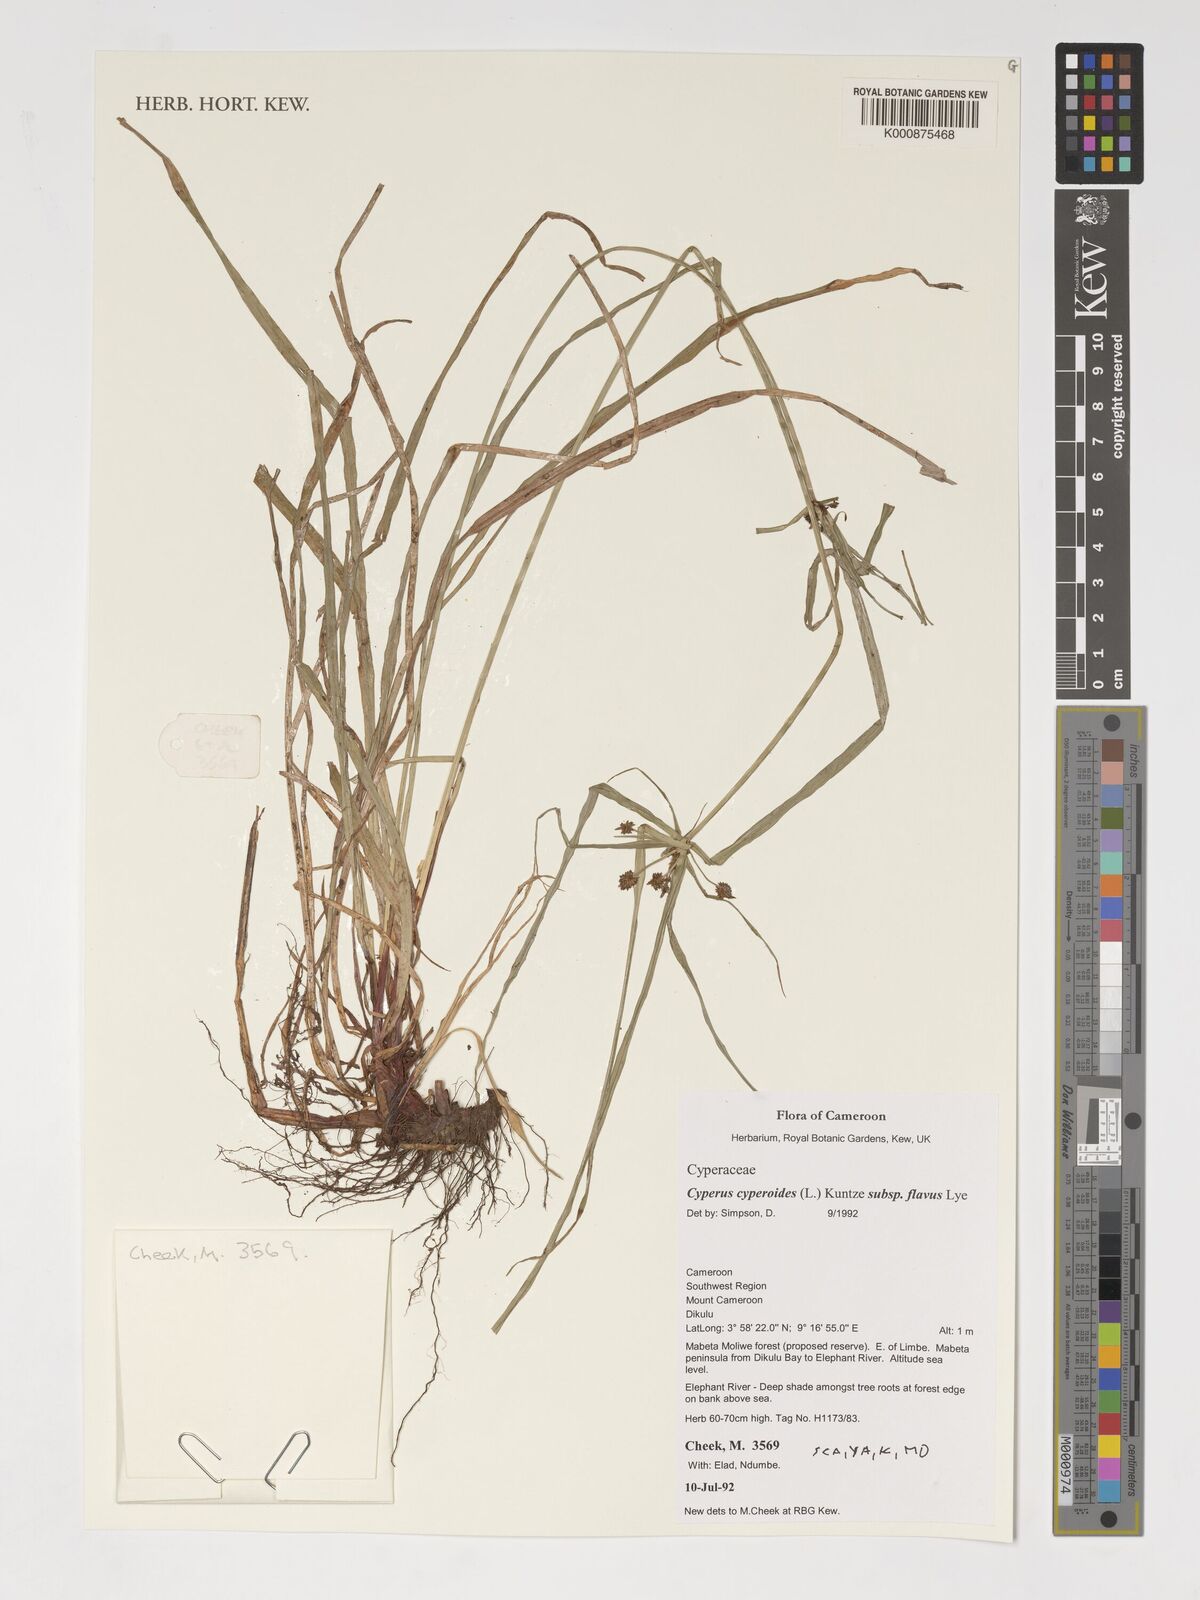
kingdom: Plantae
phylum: Tracheophyta
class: Liliopsida
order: Poales
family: Cyperaceae
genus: Cyperus
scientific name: Cyperus thomensis
